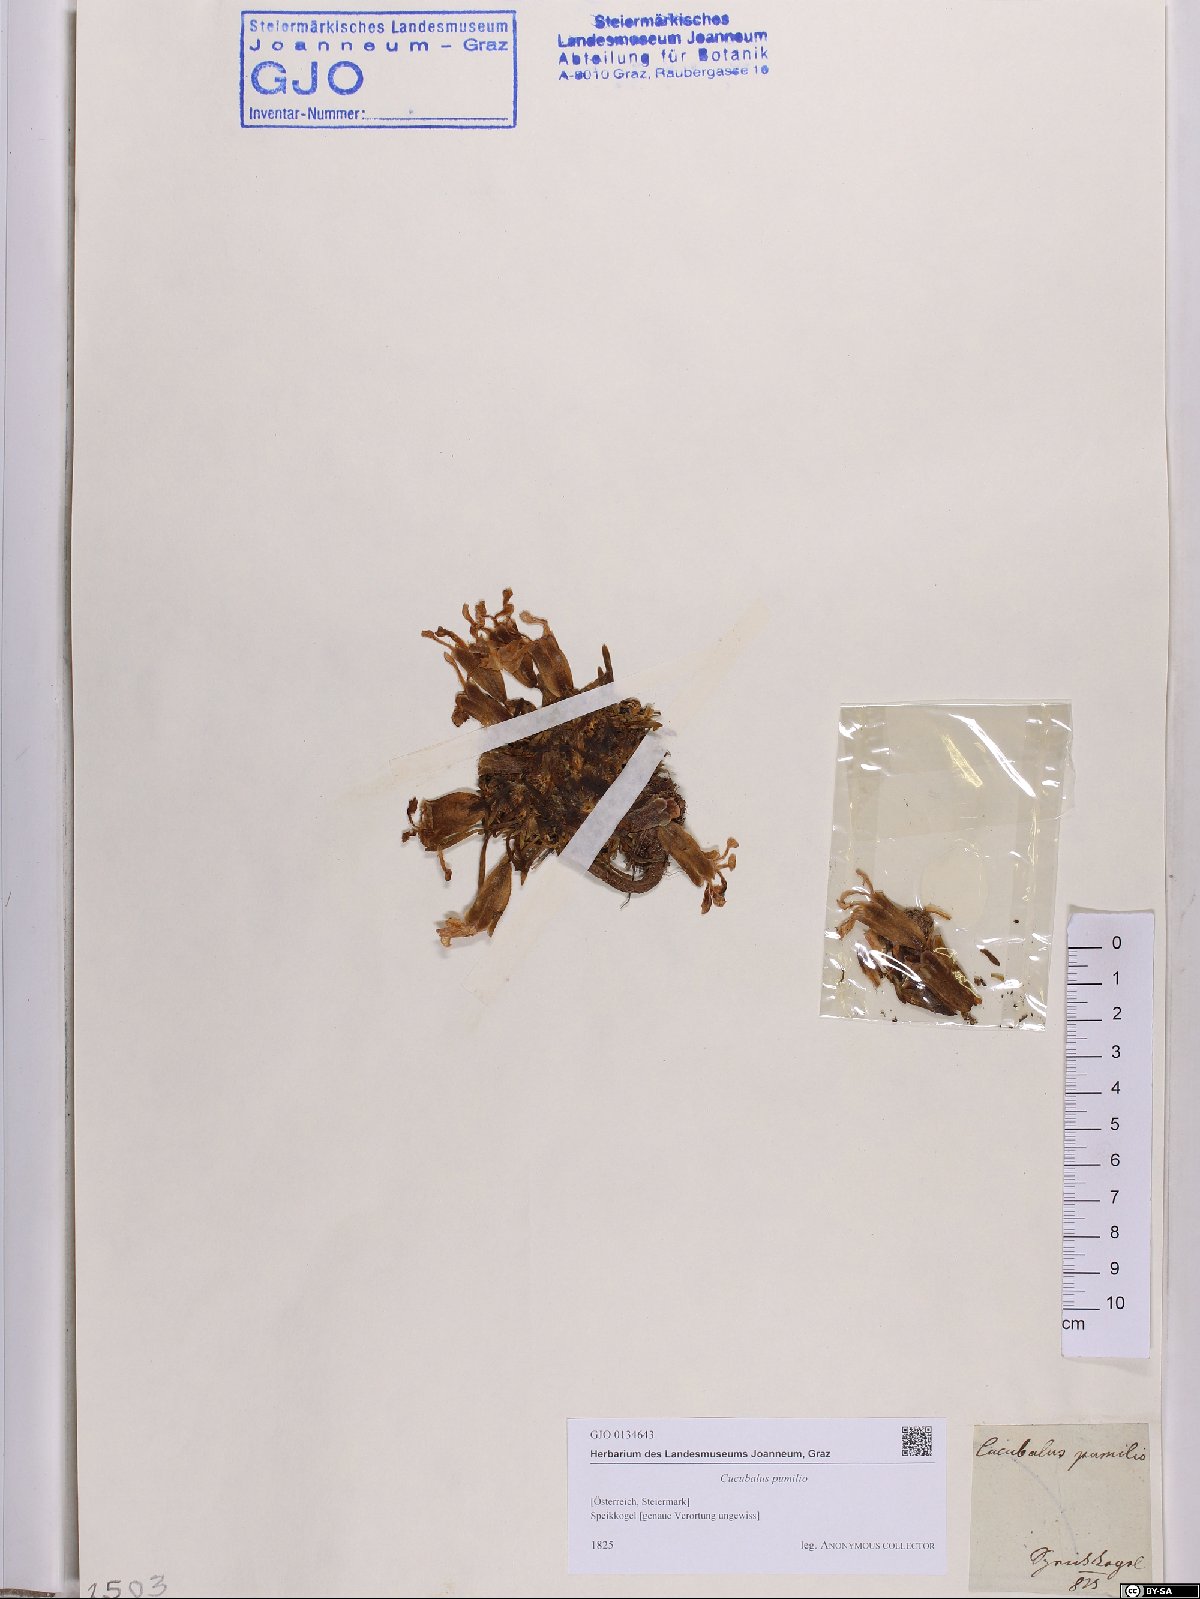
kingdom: Plantae
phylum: Tracheophyta
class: Magnoliopsida
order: Caryophyllales
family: Caryophyllaceae
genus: Saponaria
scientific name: Saponaria pumila
